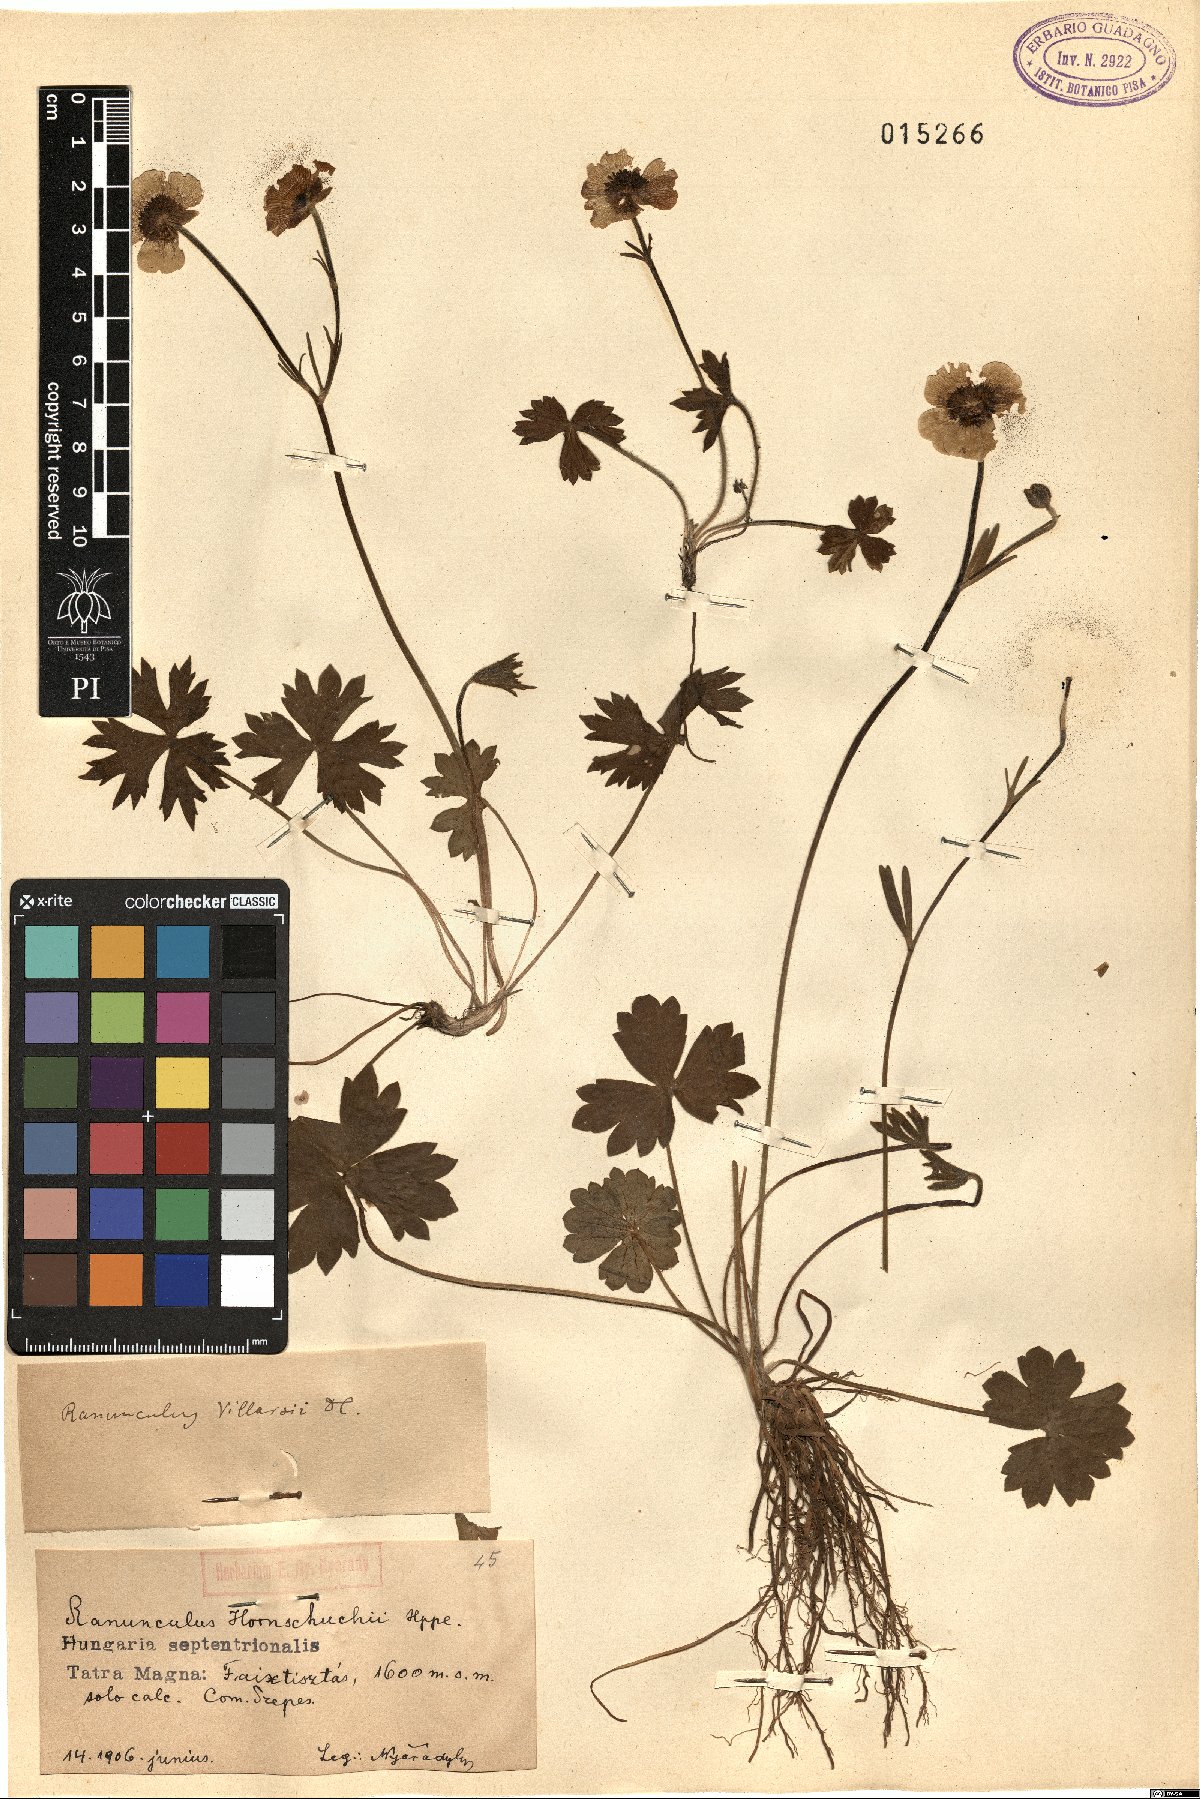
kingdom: Plantae
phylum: Tracheophyta
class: Magnoliopsida
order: Ranunculales
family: Ranunculaceae
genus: Ranunculus
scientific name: Ranunculus villarsii
